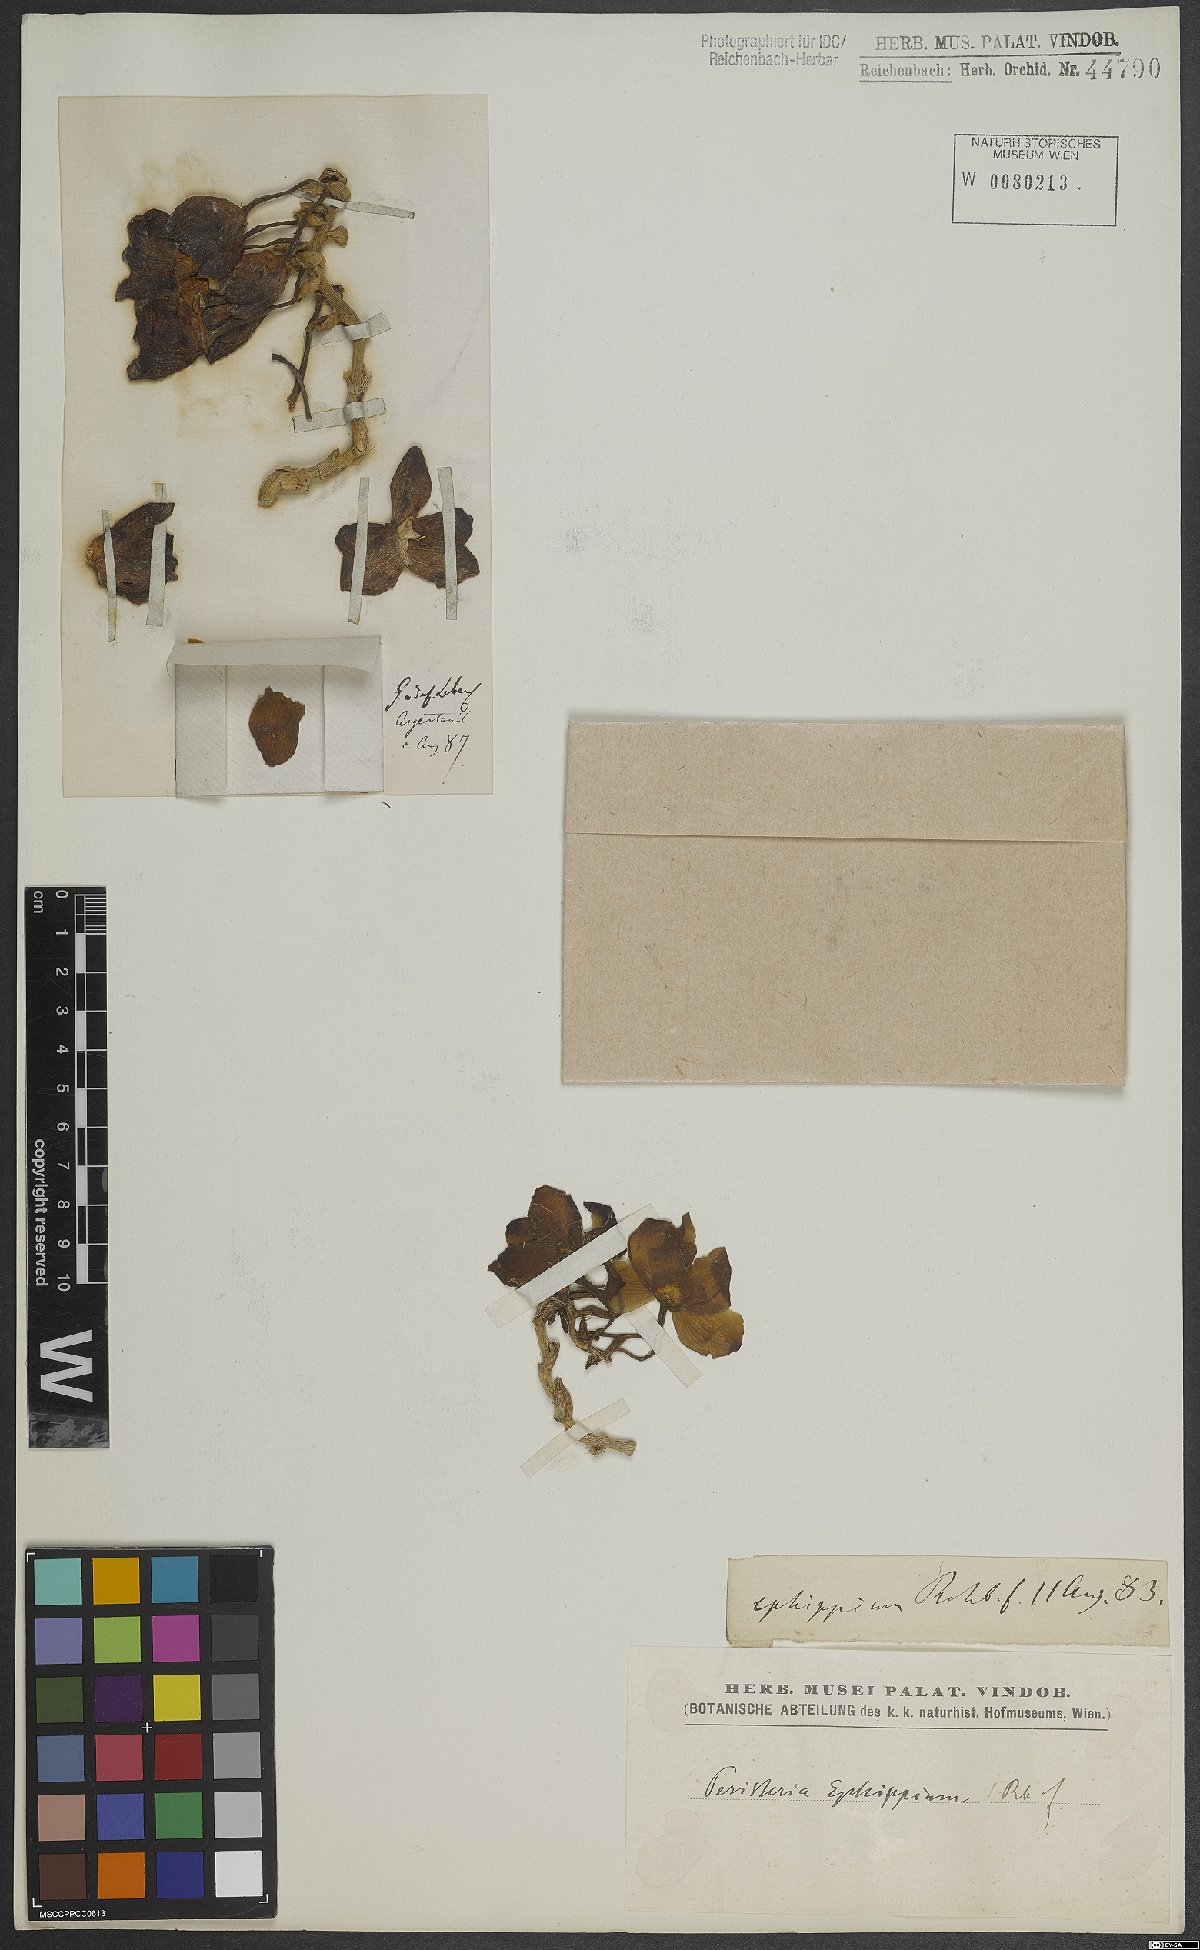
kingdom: Plantae
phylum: Tracheophyta
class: Liliopsida
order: Asparagales
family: Orchidaceae
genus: Peristeria
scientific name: Peristeria ephippium
